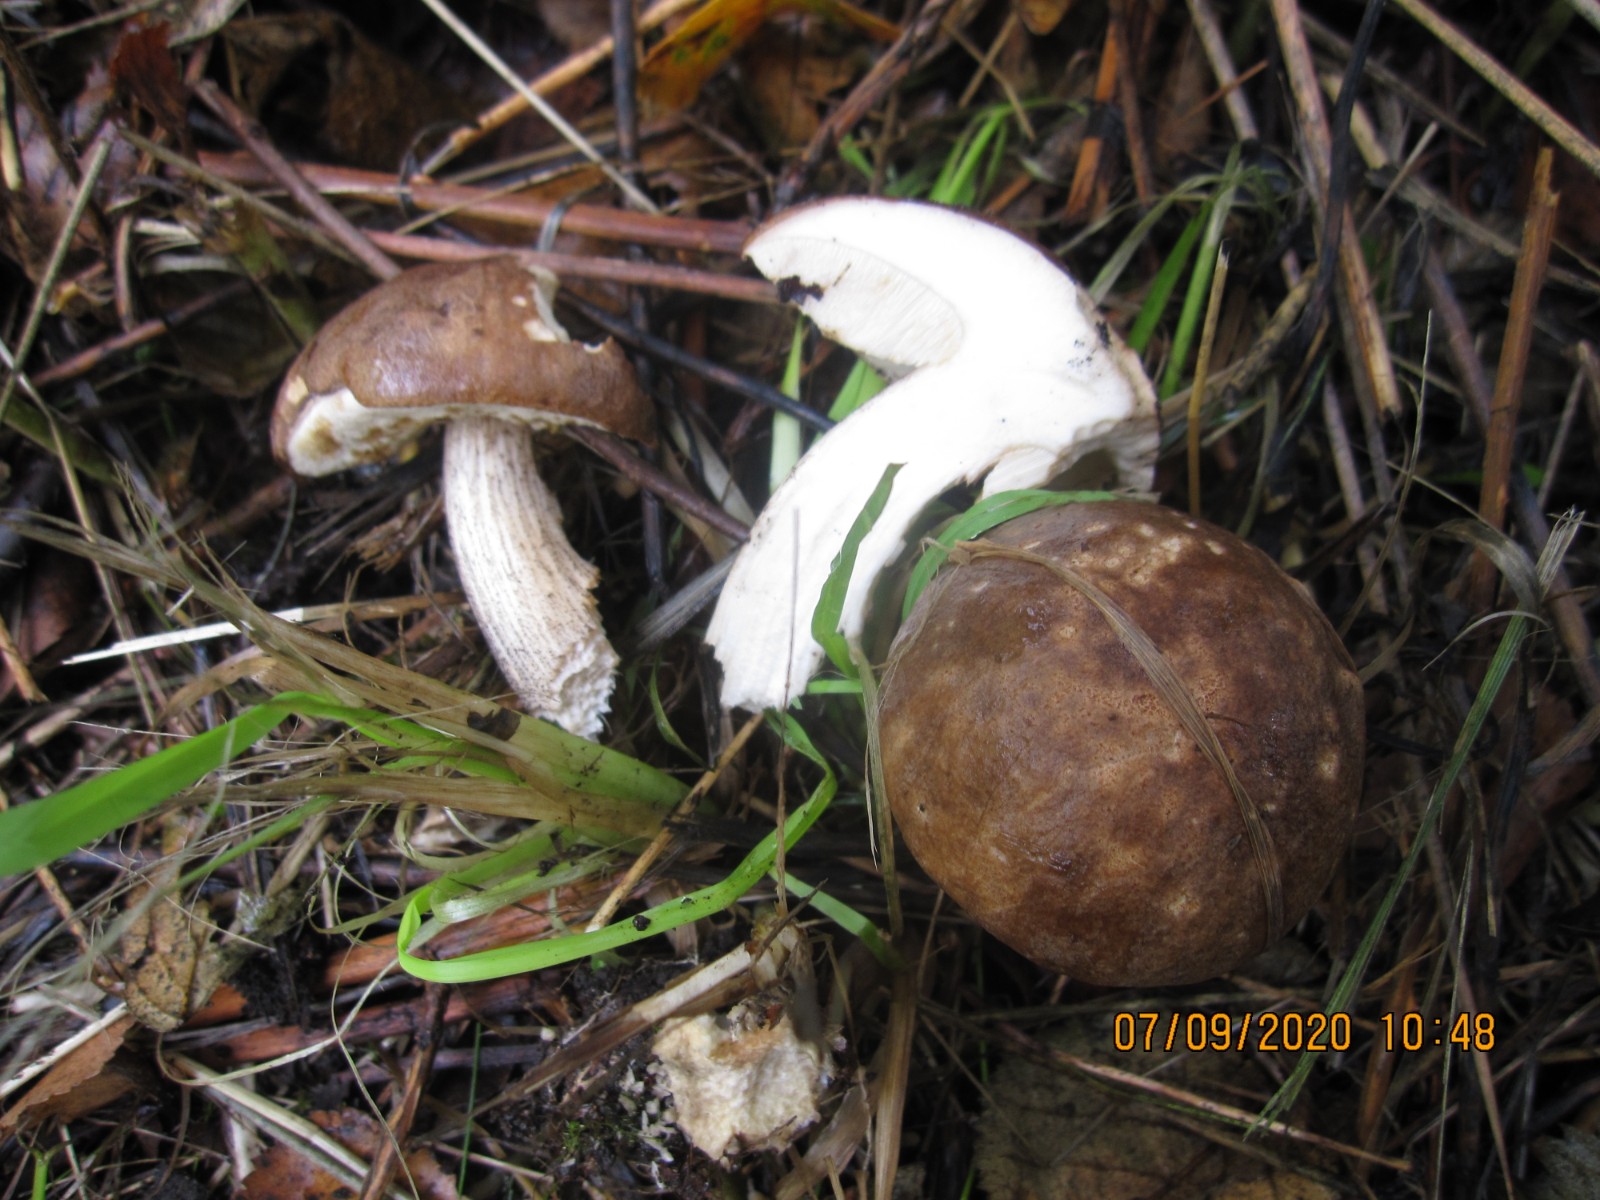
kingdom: Fungi
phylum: Basidiomycota
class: Agaricomycetes
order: Boletales
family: Boletaceae
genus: Leccinum
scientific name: Leccinum scabrum
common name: brun skælrørhat
